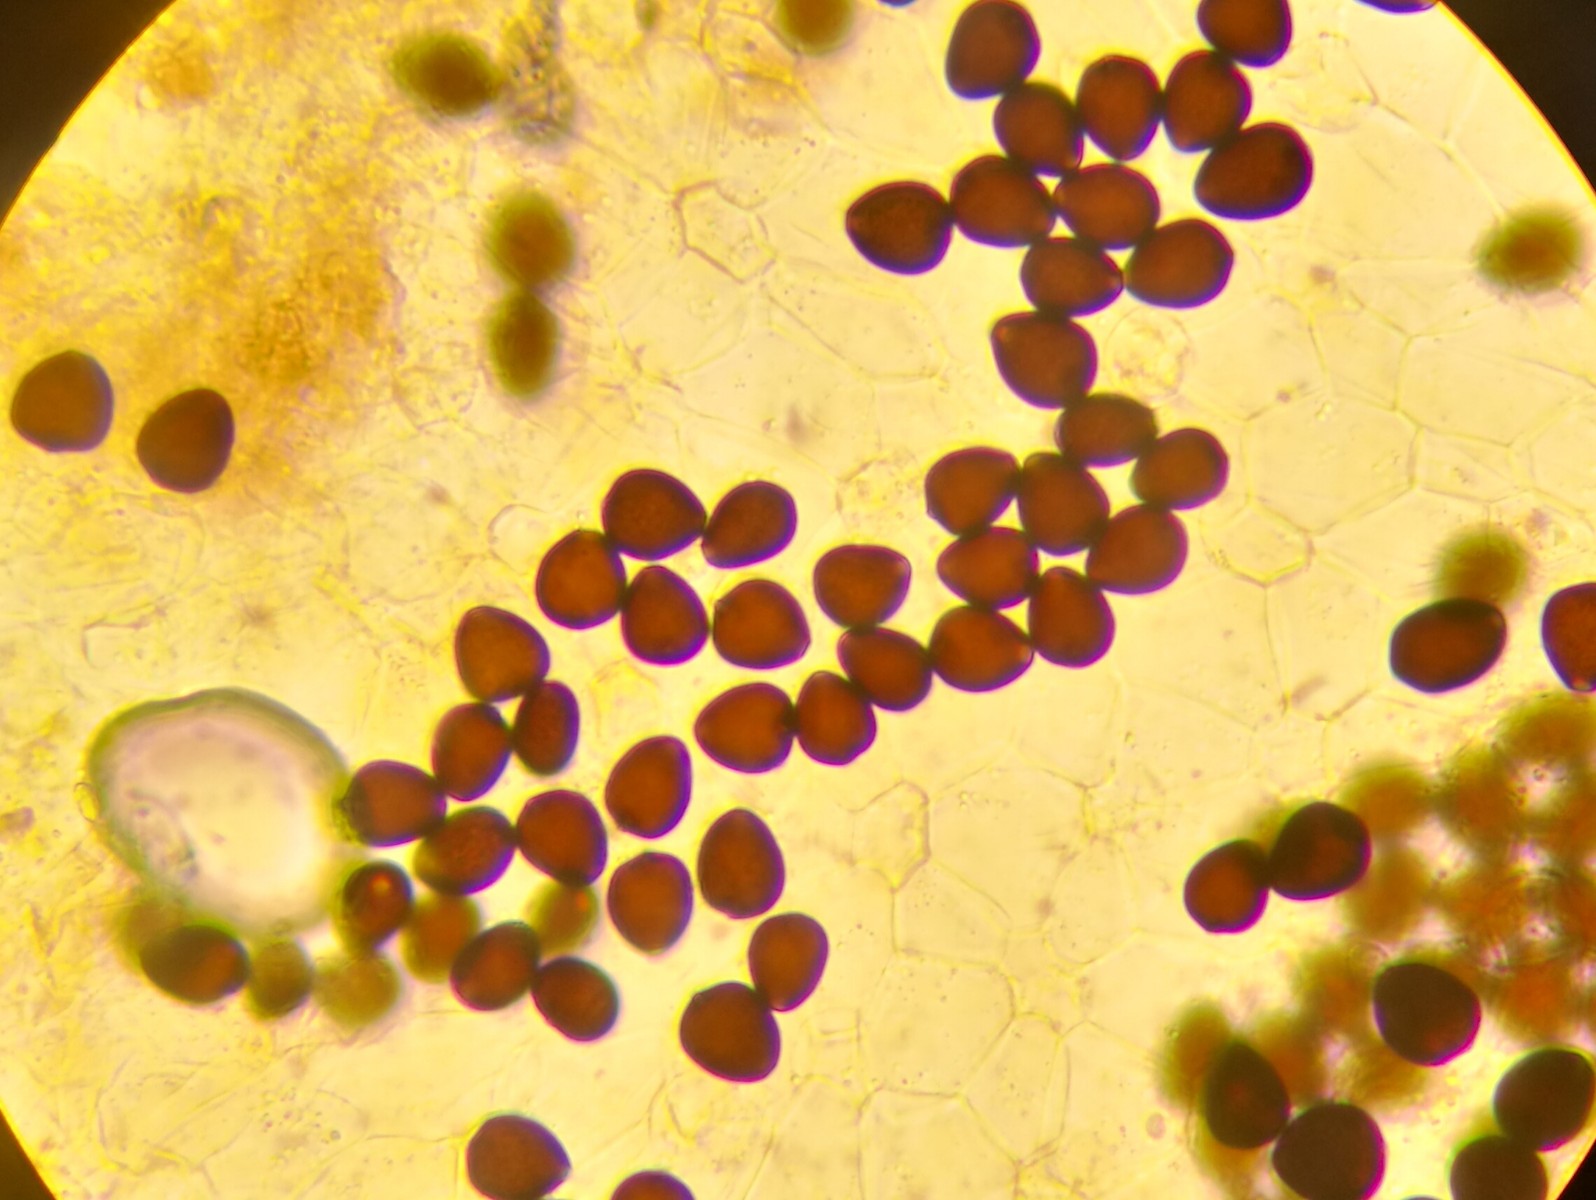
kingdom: Fungi
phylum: Basidiomycota
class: Agaricomycetes
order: Agaricales
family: Psathyrellaceae
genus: Parasola
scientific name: Parasola schroeteri
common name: bredsporet hjulhat
